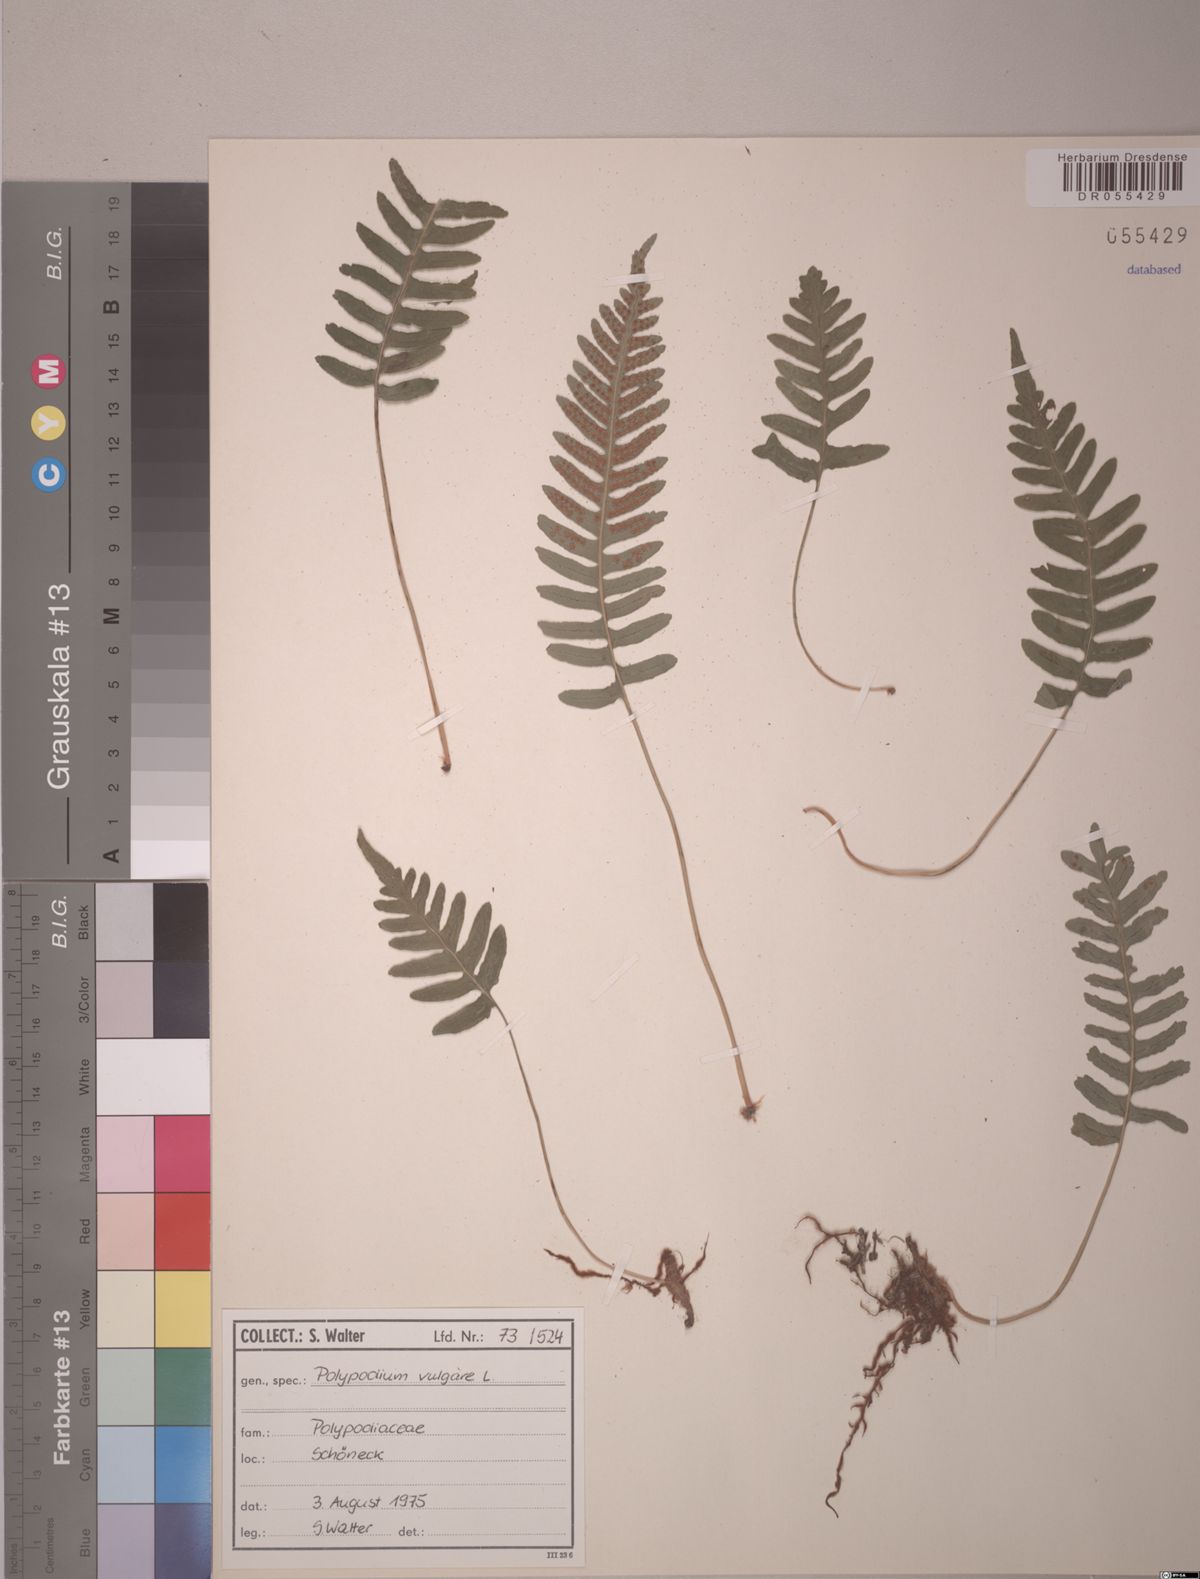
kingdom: Plantae
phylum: Tracheophyta
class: Polypodiopsida
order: Polypodiales
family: Polypodiaceae
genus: Polypodium
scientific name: Polypodium vulgare
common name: Common polypody
